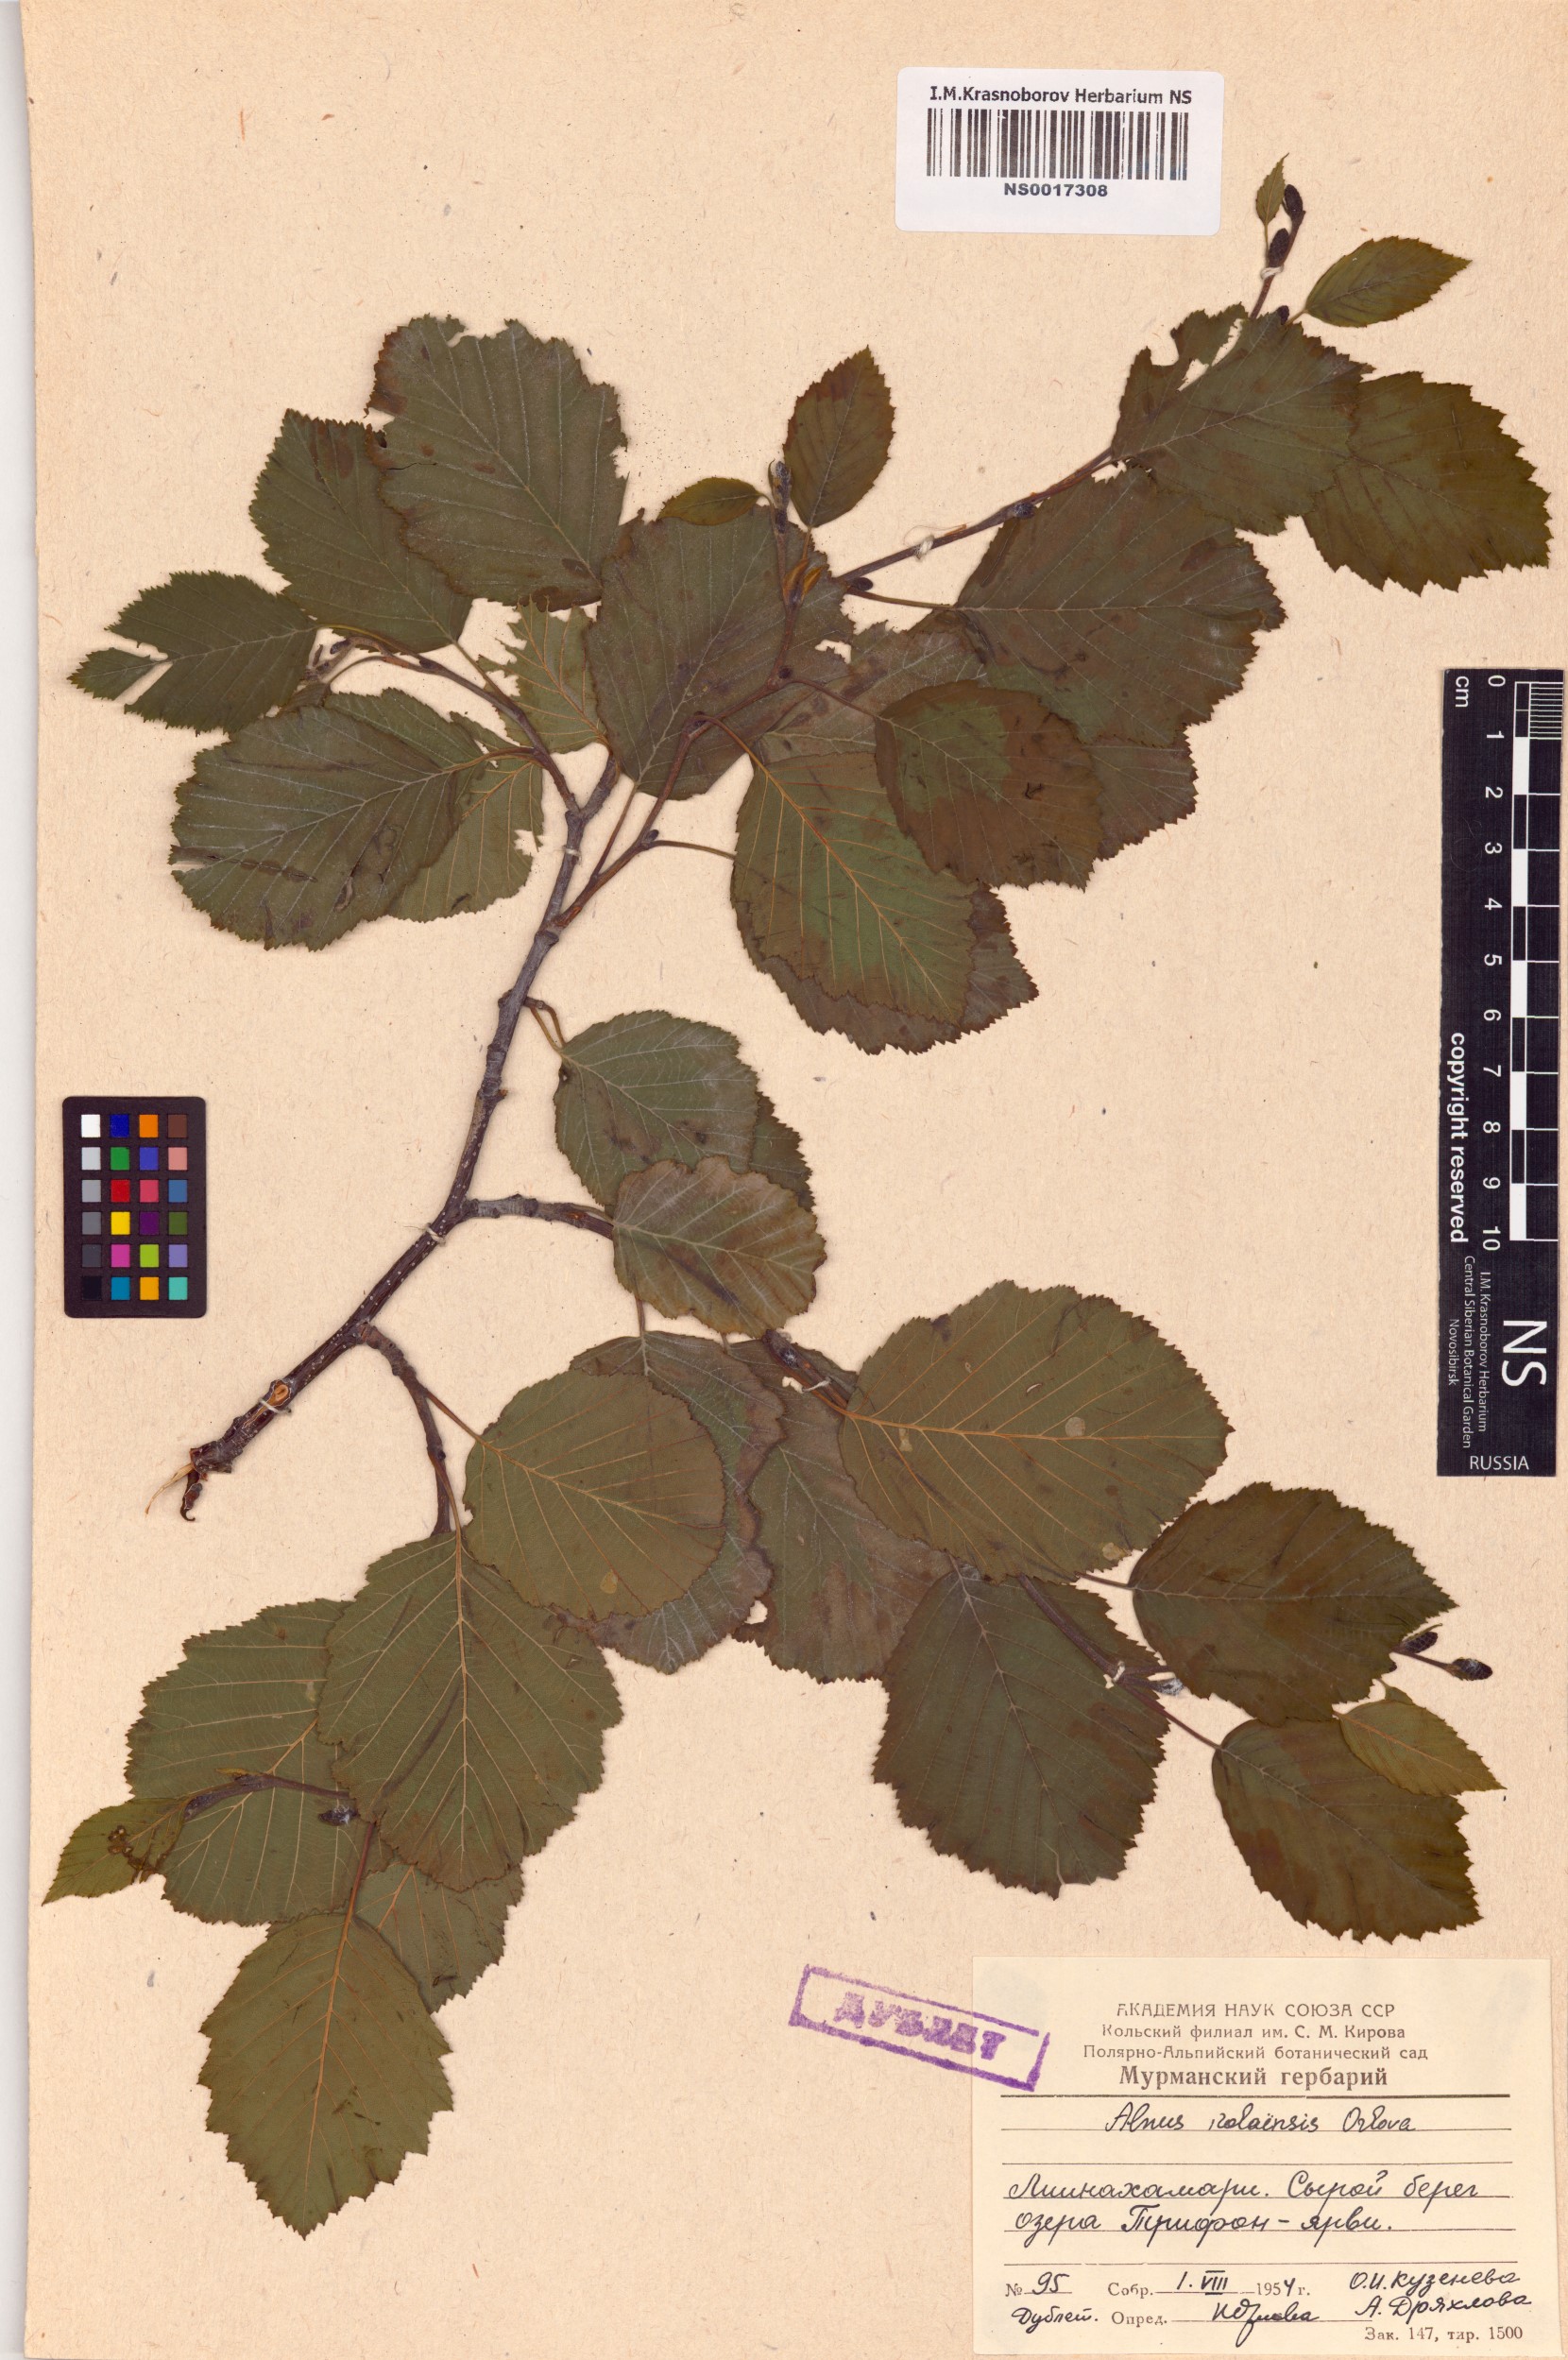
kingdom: Plantae
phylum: Tracheophyta
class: Magnoliopsida
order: Fagales
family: Betulaceae
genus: Alnus
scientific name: Alnus incana
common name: Grey alder
